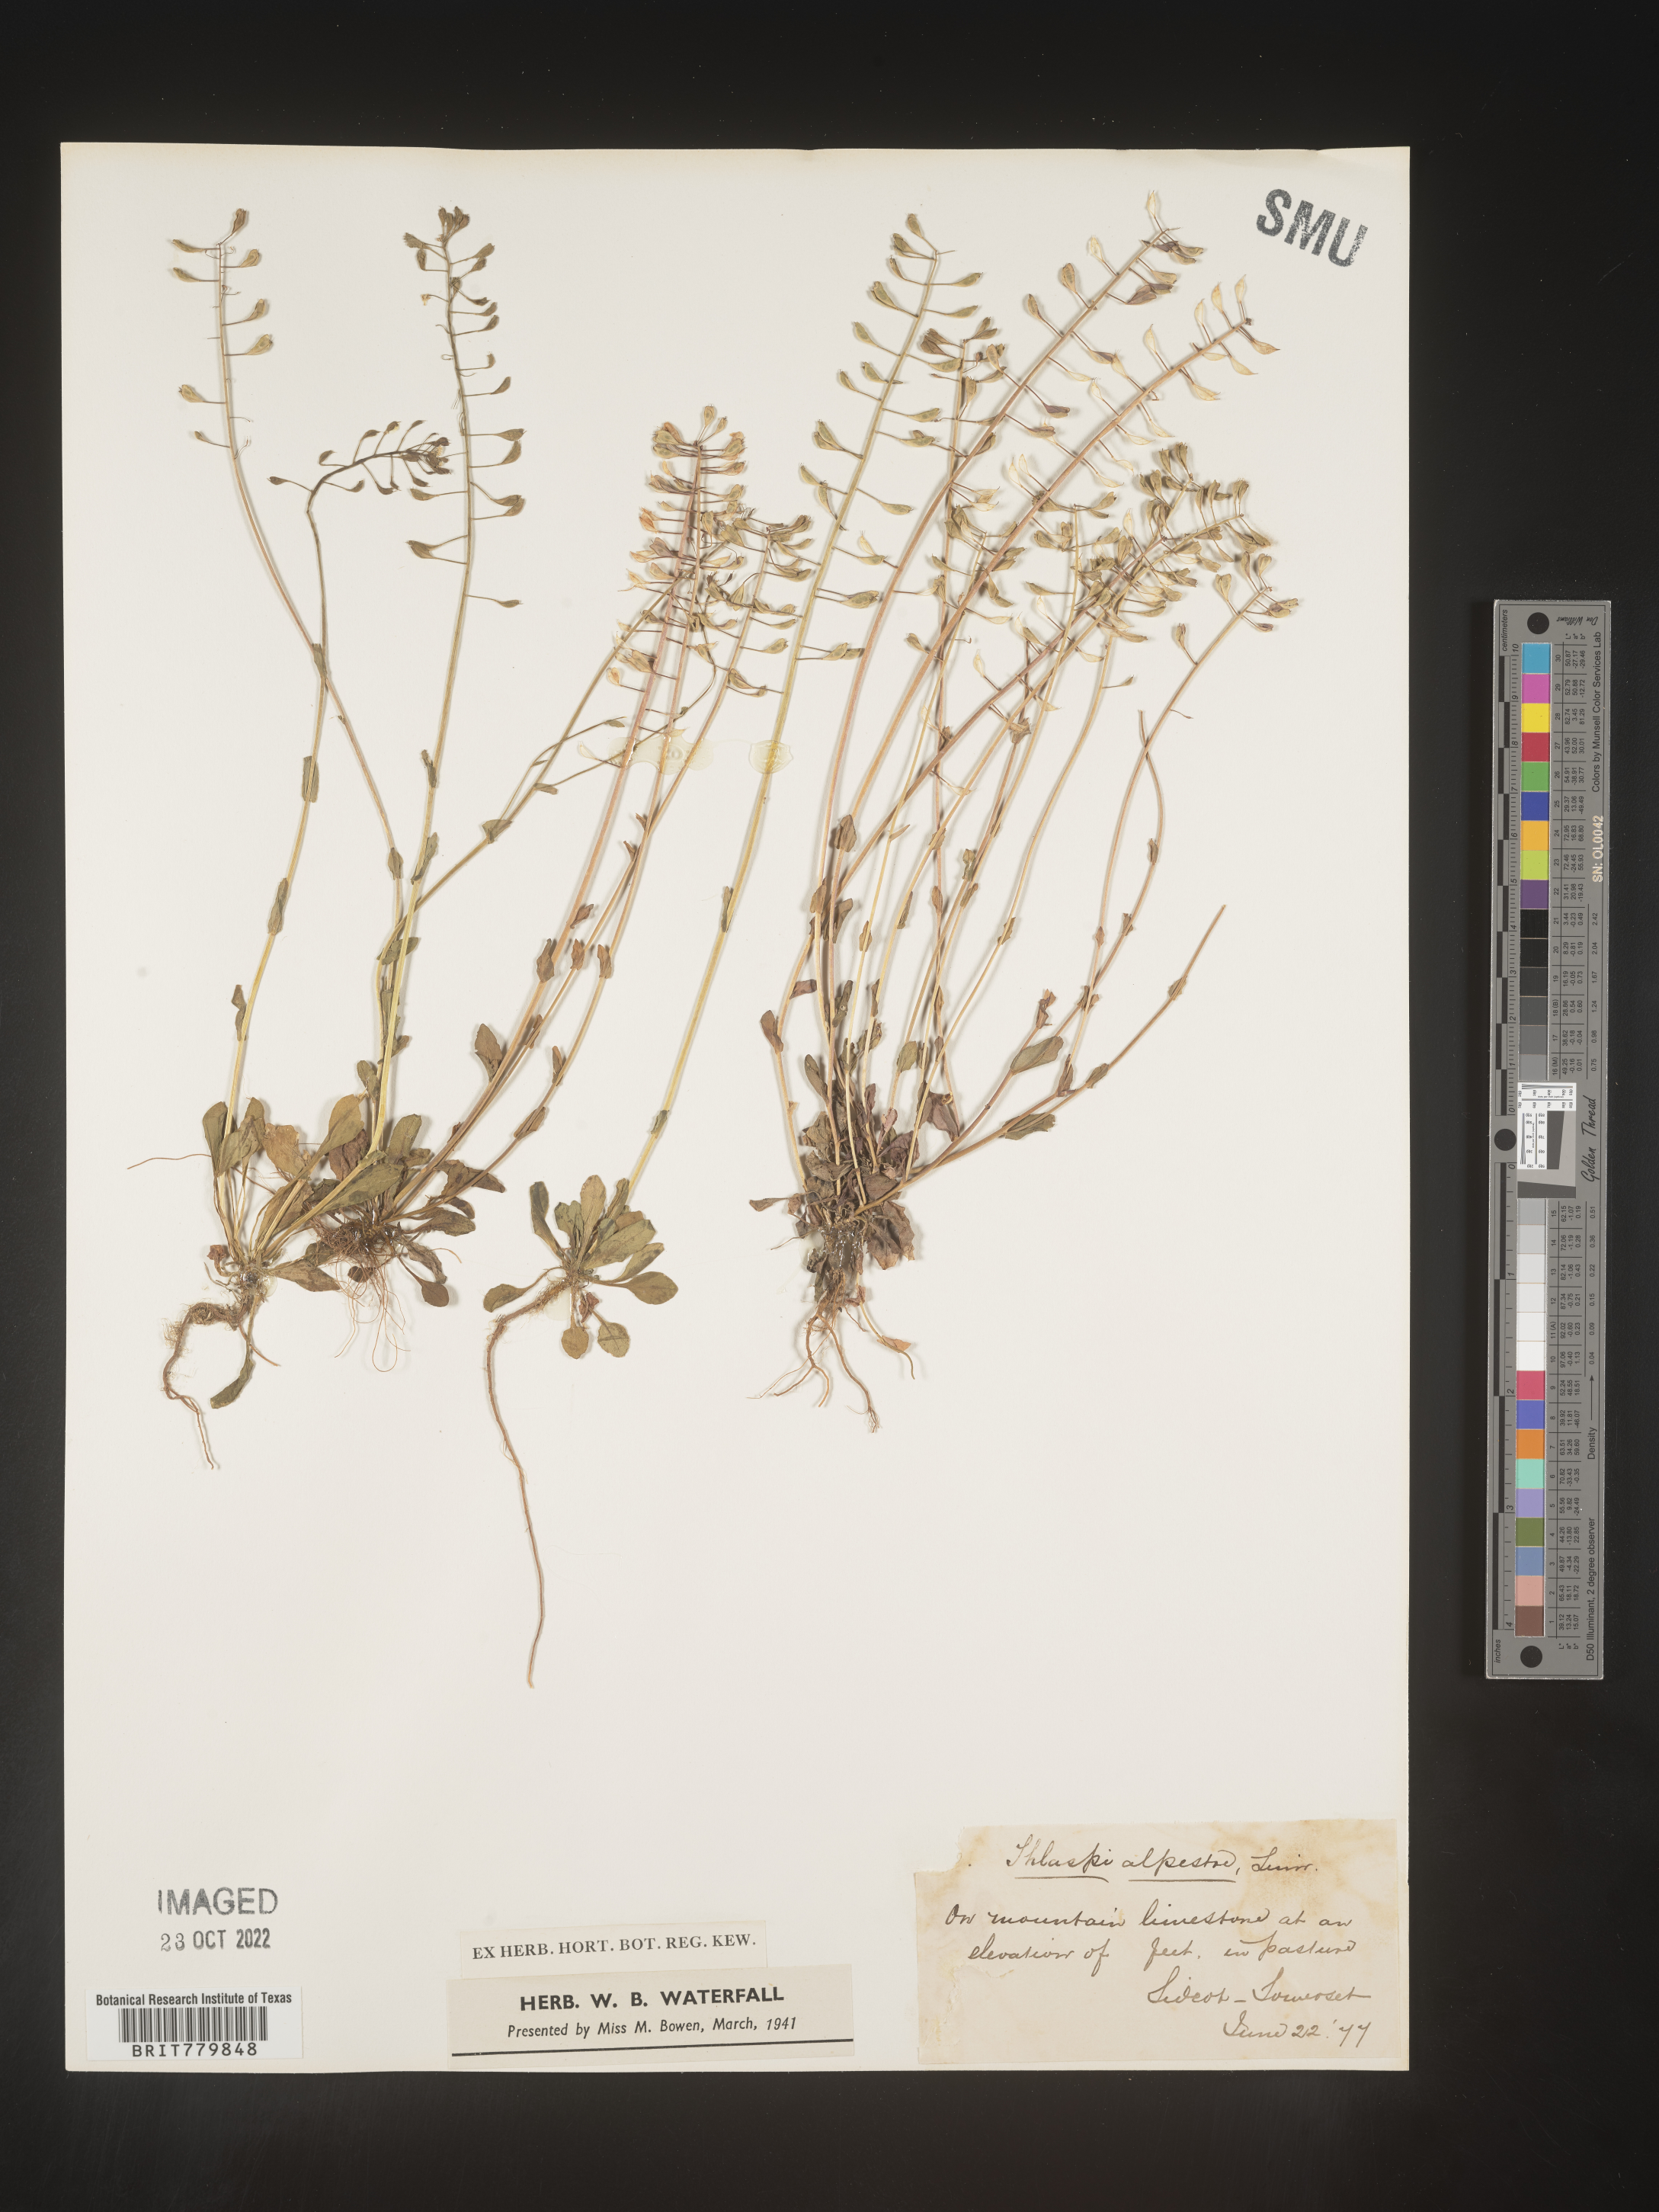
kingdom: Plantae
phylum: Tracheophyta
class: Magnoliopsida
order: Brassicales
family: Brassicaceae
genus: Thlaspi
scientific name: Thlaspi
